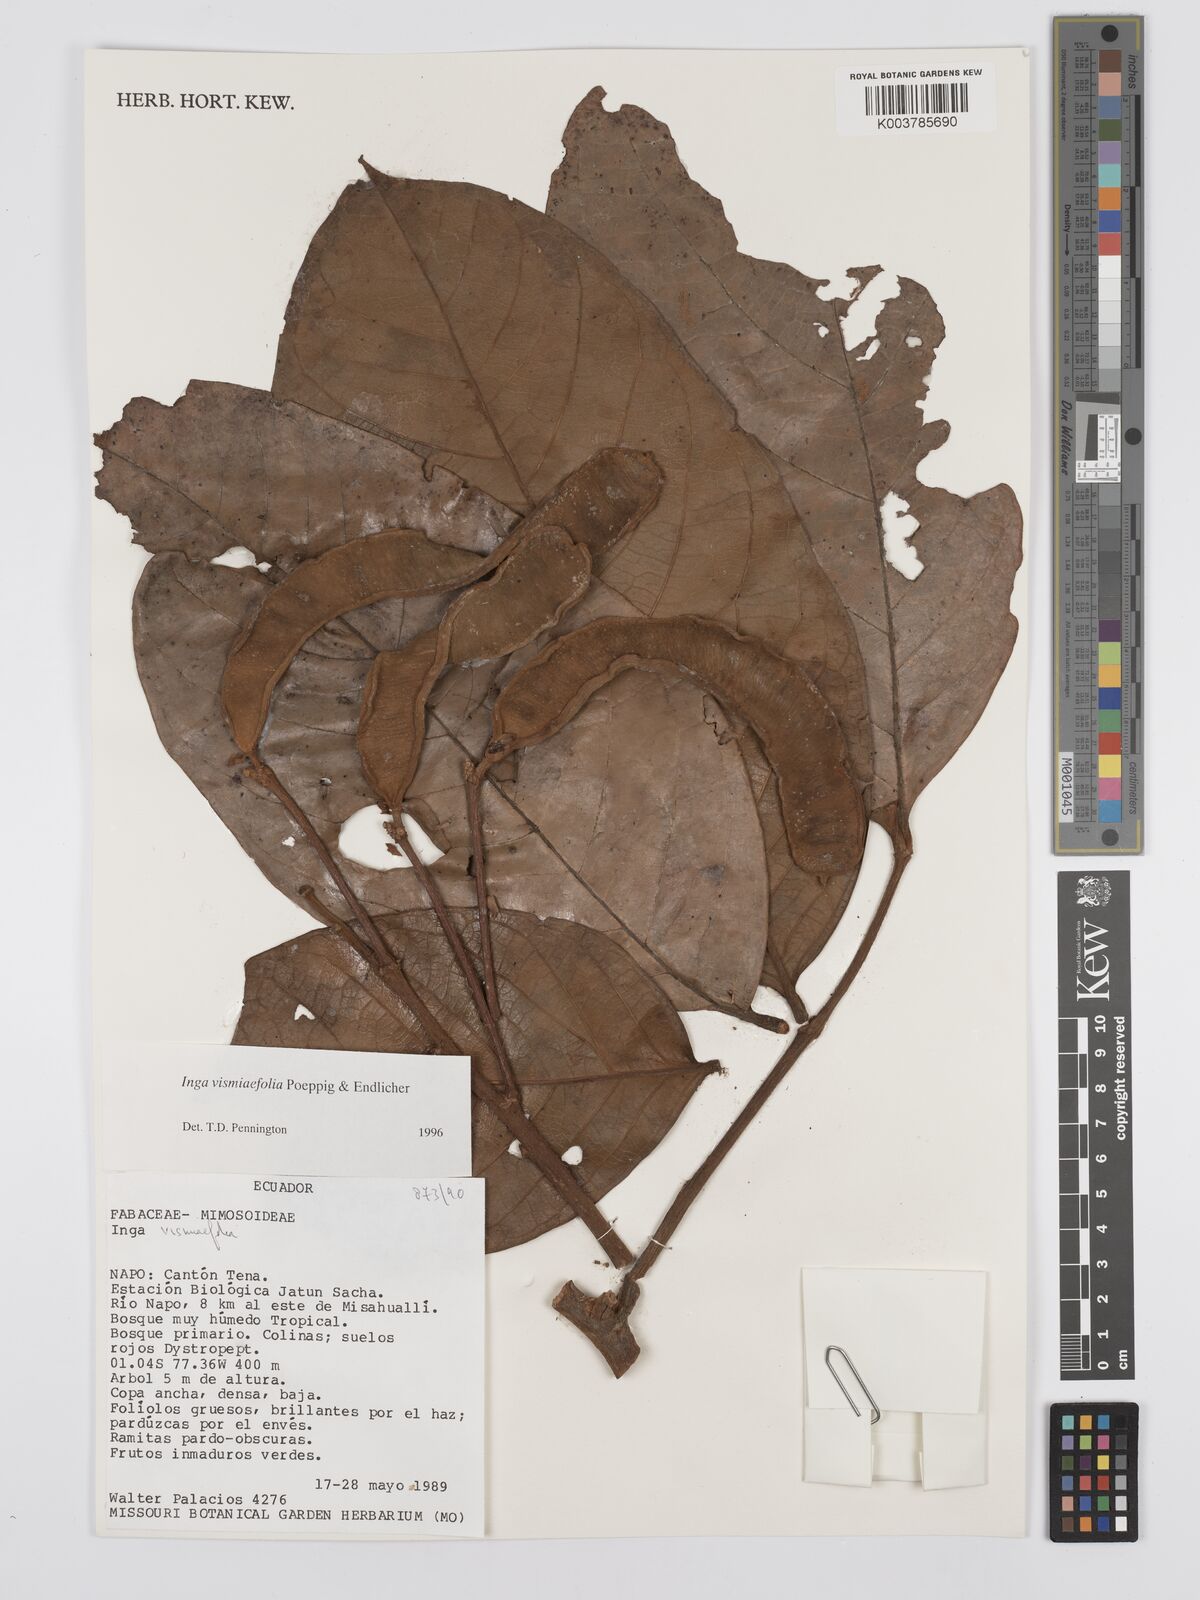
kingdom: Plantae
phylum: Tracheophyta
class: Magnoliopsida
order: Fabales
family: Fabaceae
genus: Inga
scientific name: Inga vismiifolia
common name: Howler monkey inga
